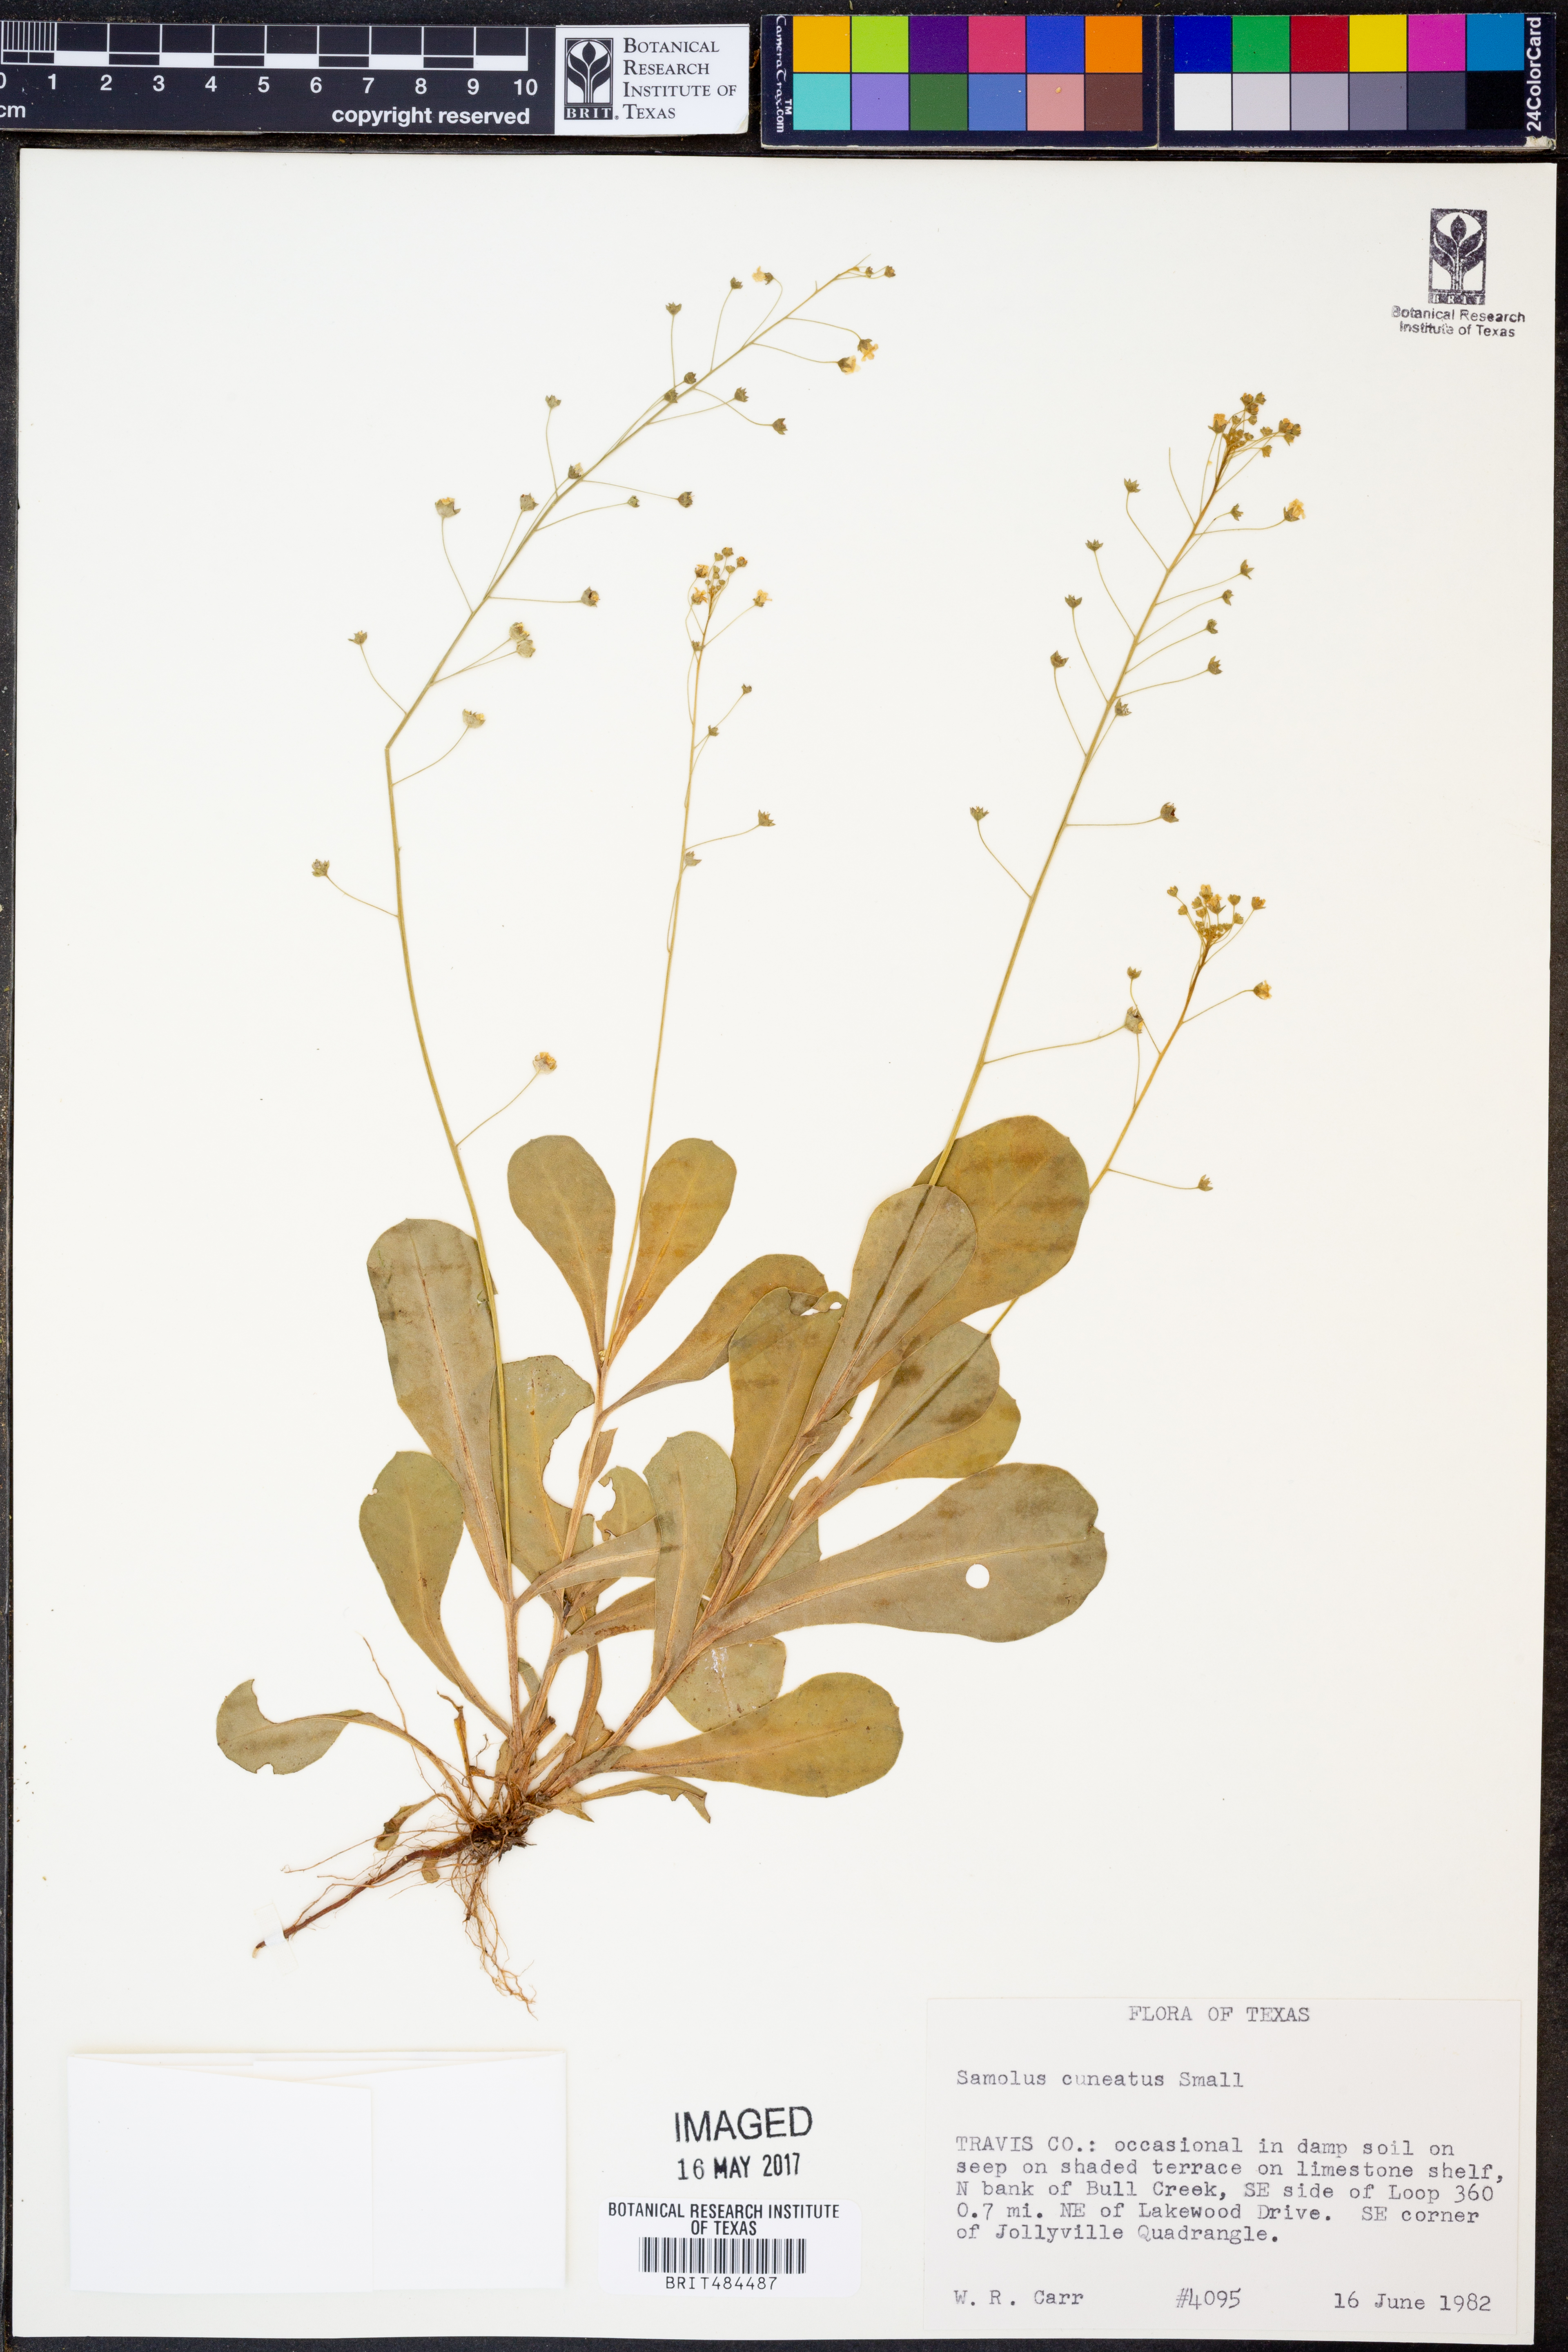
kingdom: Plantae
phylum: Tracheophyta
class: Magnoliopsida
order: Ericales
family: Primulaceae
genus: Samolus
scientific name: Samolus ebracteatus
